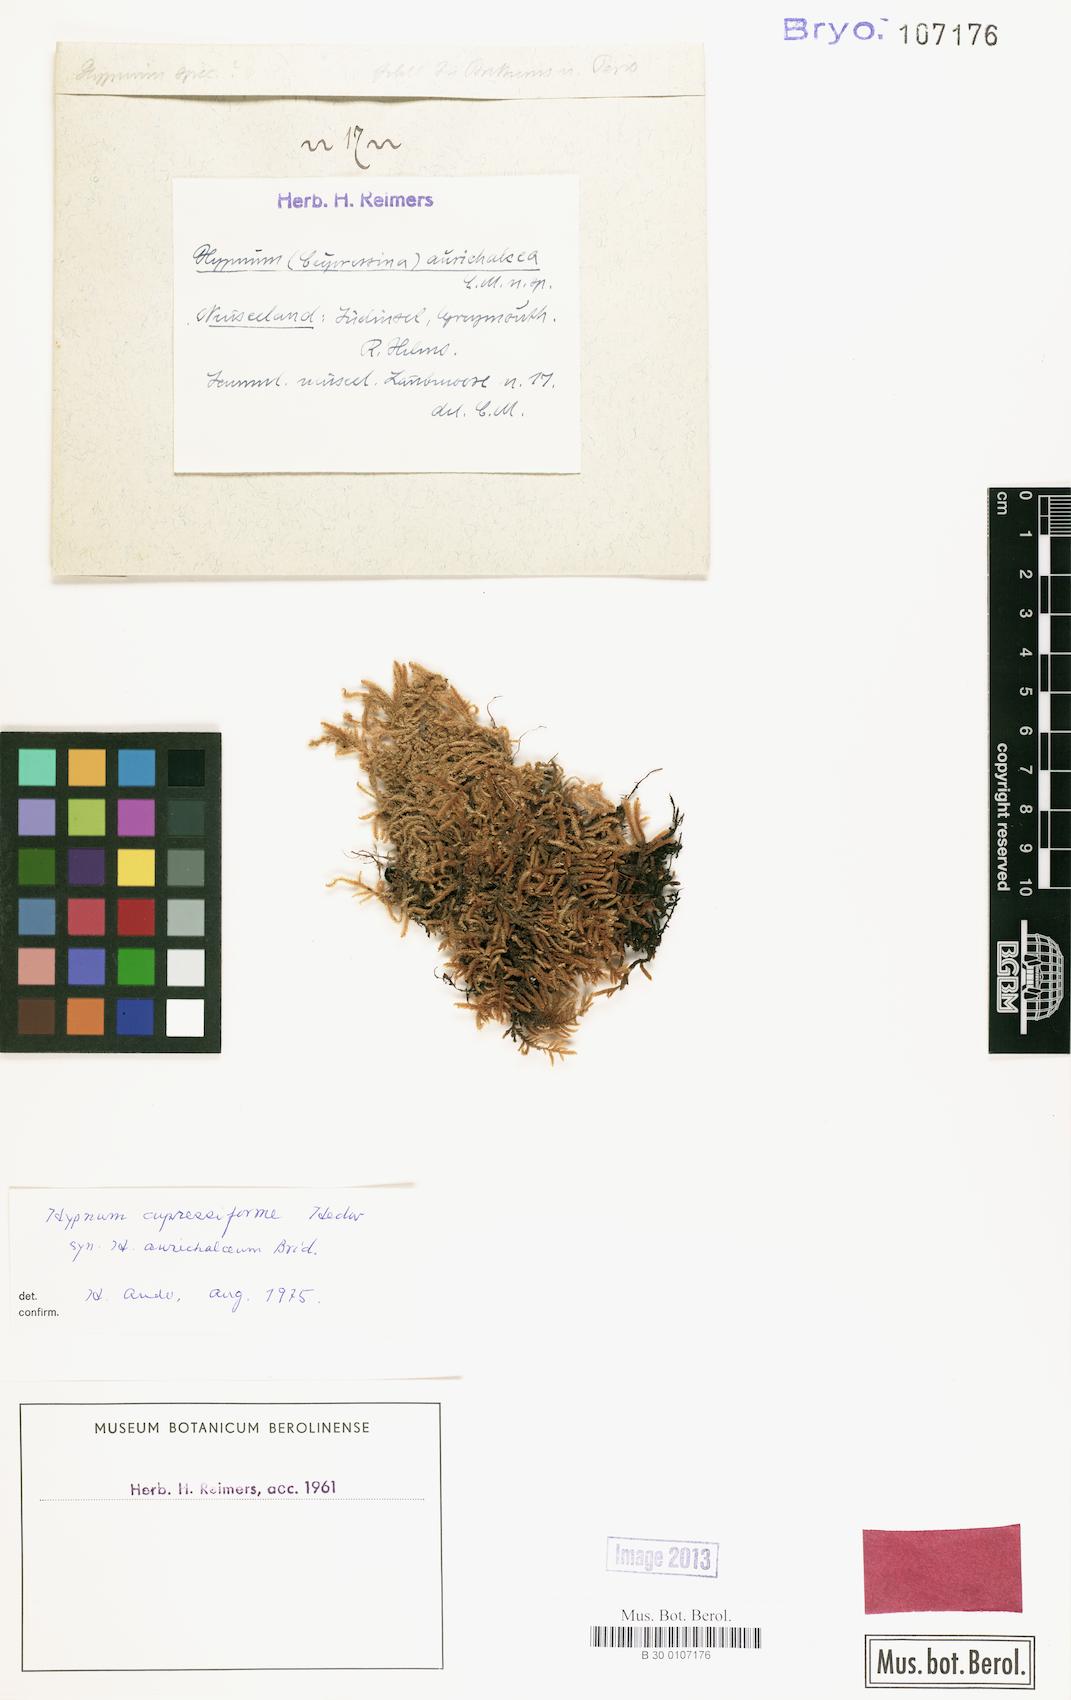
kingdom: Plantae
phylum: Bryophyta
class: Bryopsida
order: Hypnales
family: Hypnaceae
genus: Hypnum
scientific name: Hypnum aurichalceum
